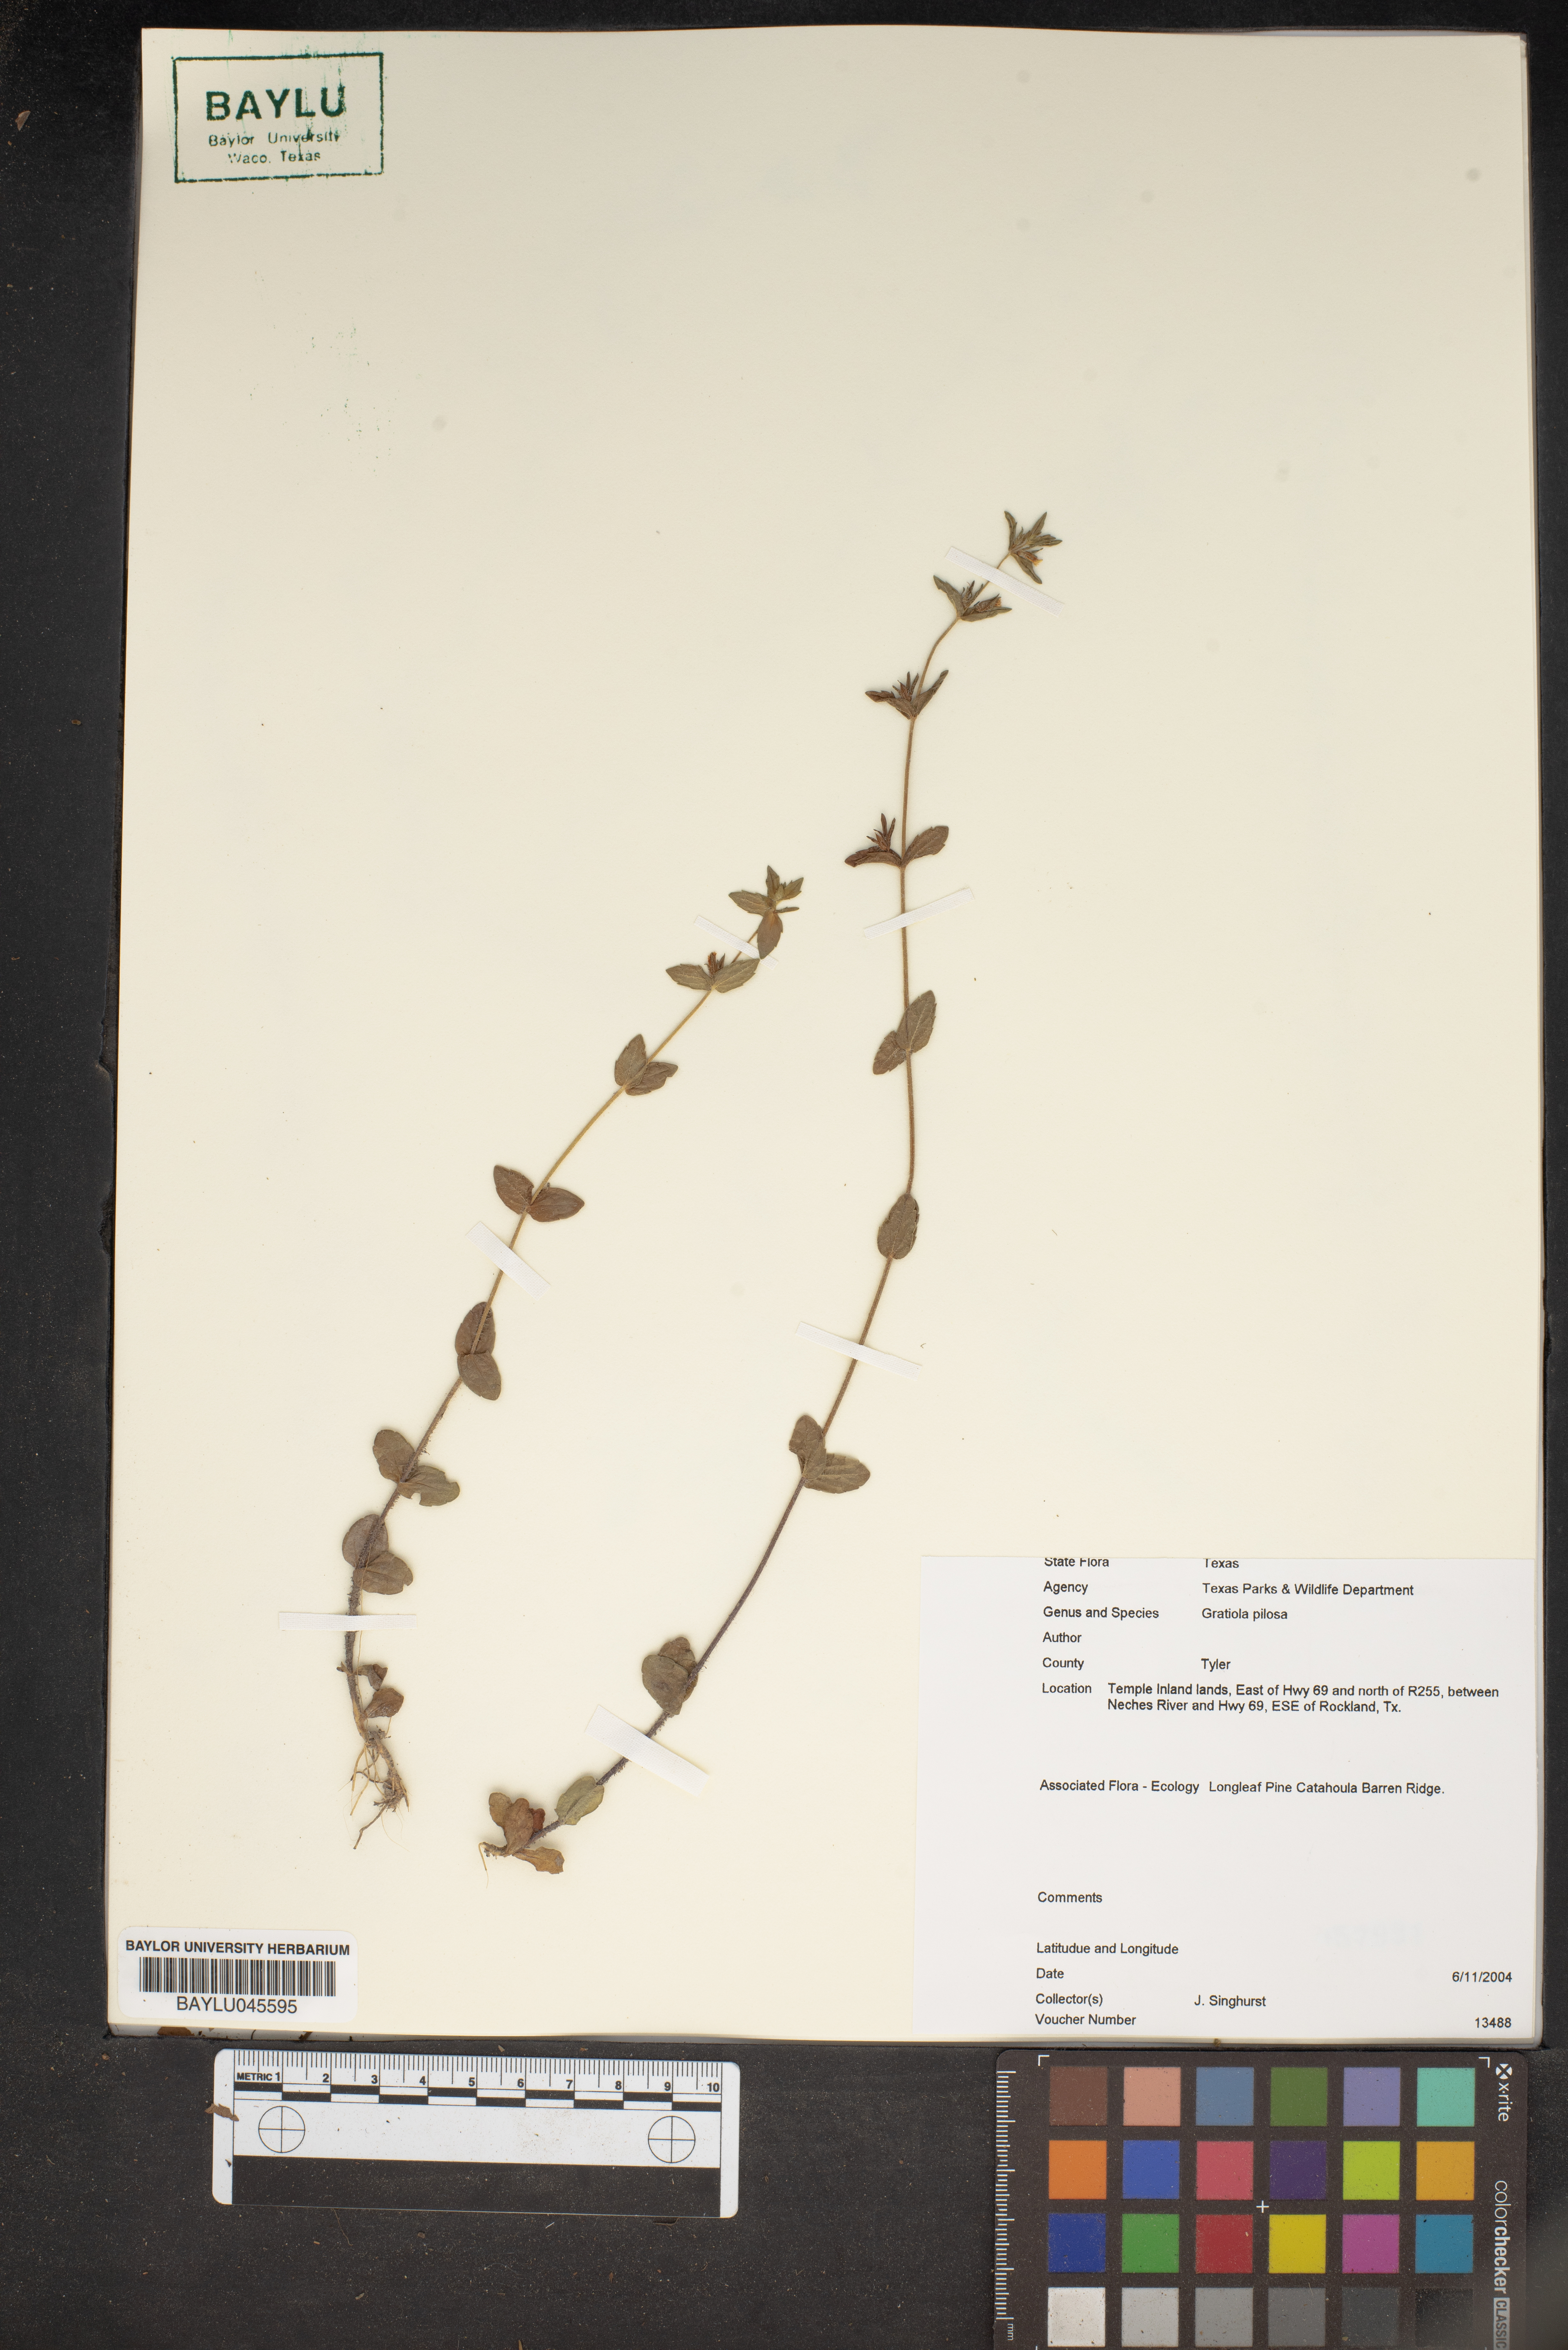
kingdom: Plantae
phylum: Tracheophyta
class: Magnoliopsida
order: Lamiales
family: Plantaginaceae
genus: Gratiola
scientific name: Gratiola pilosa
